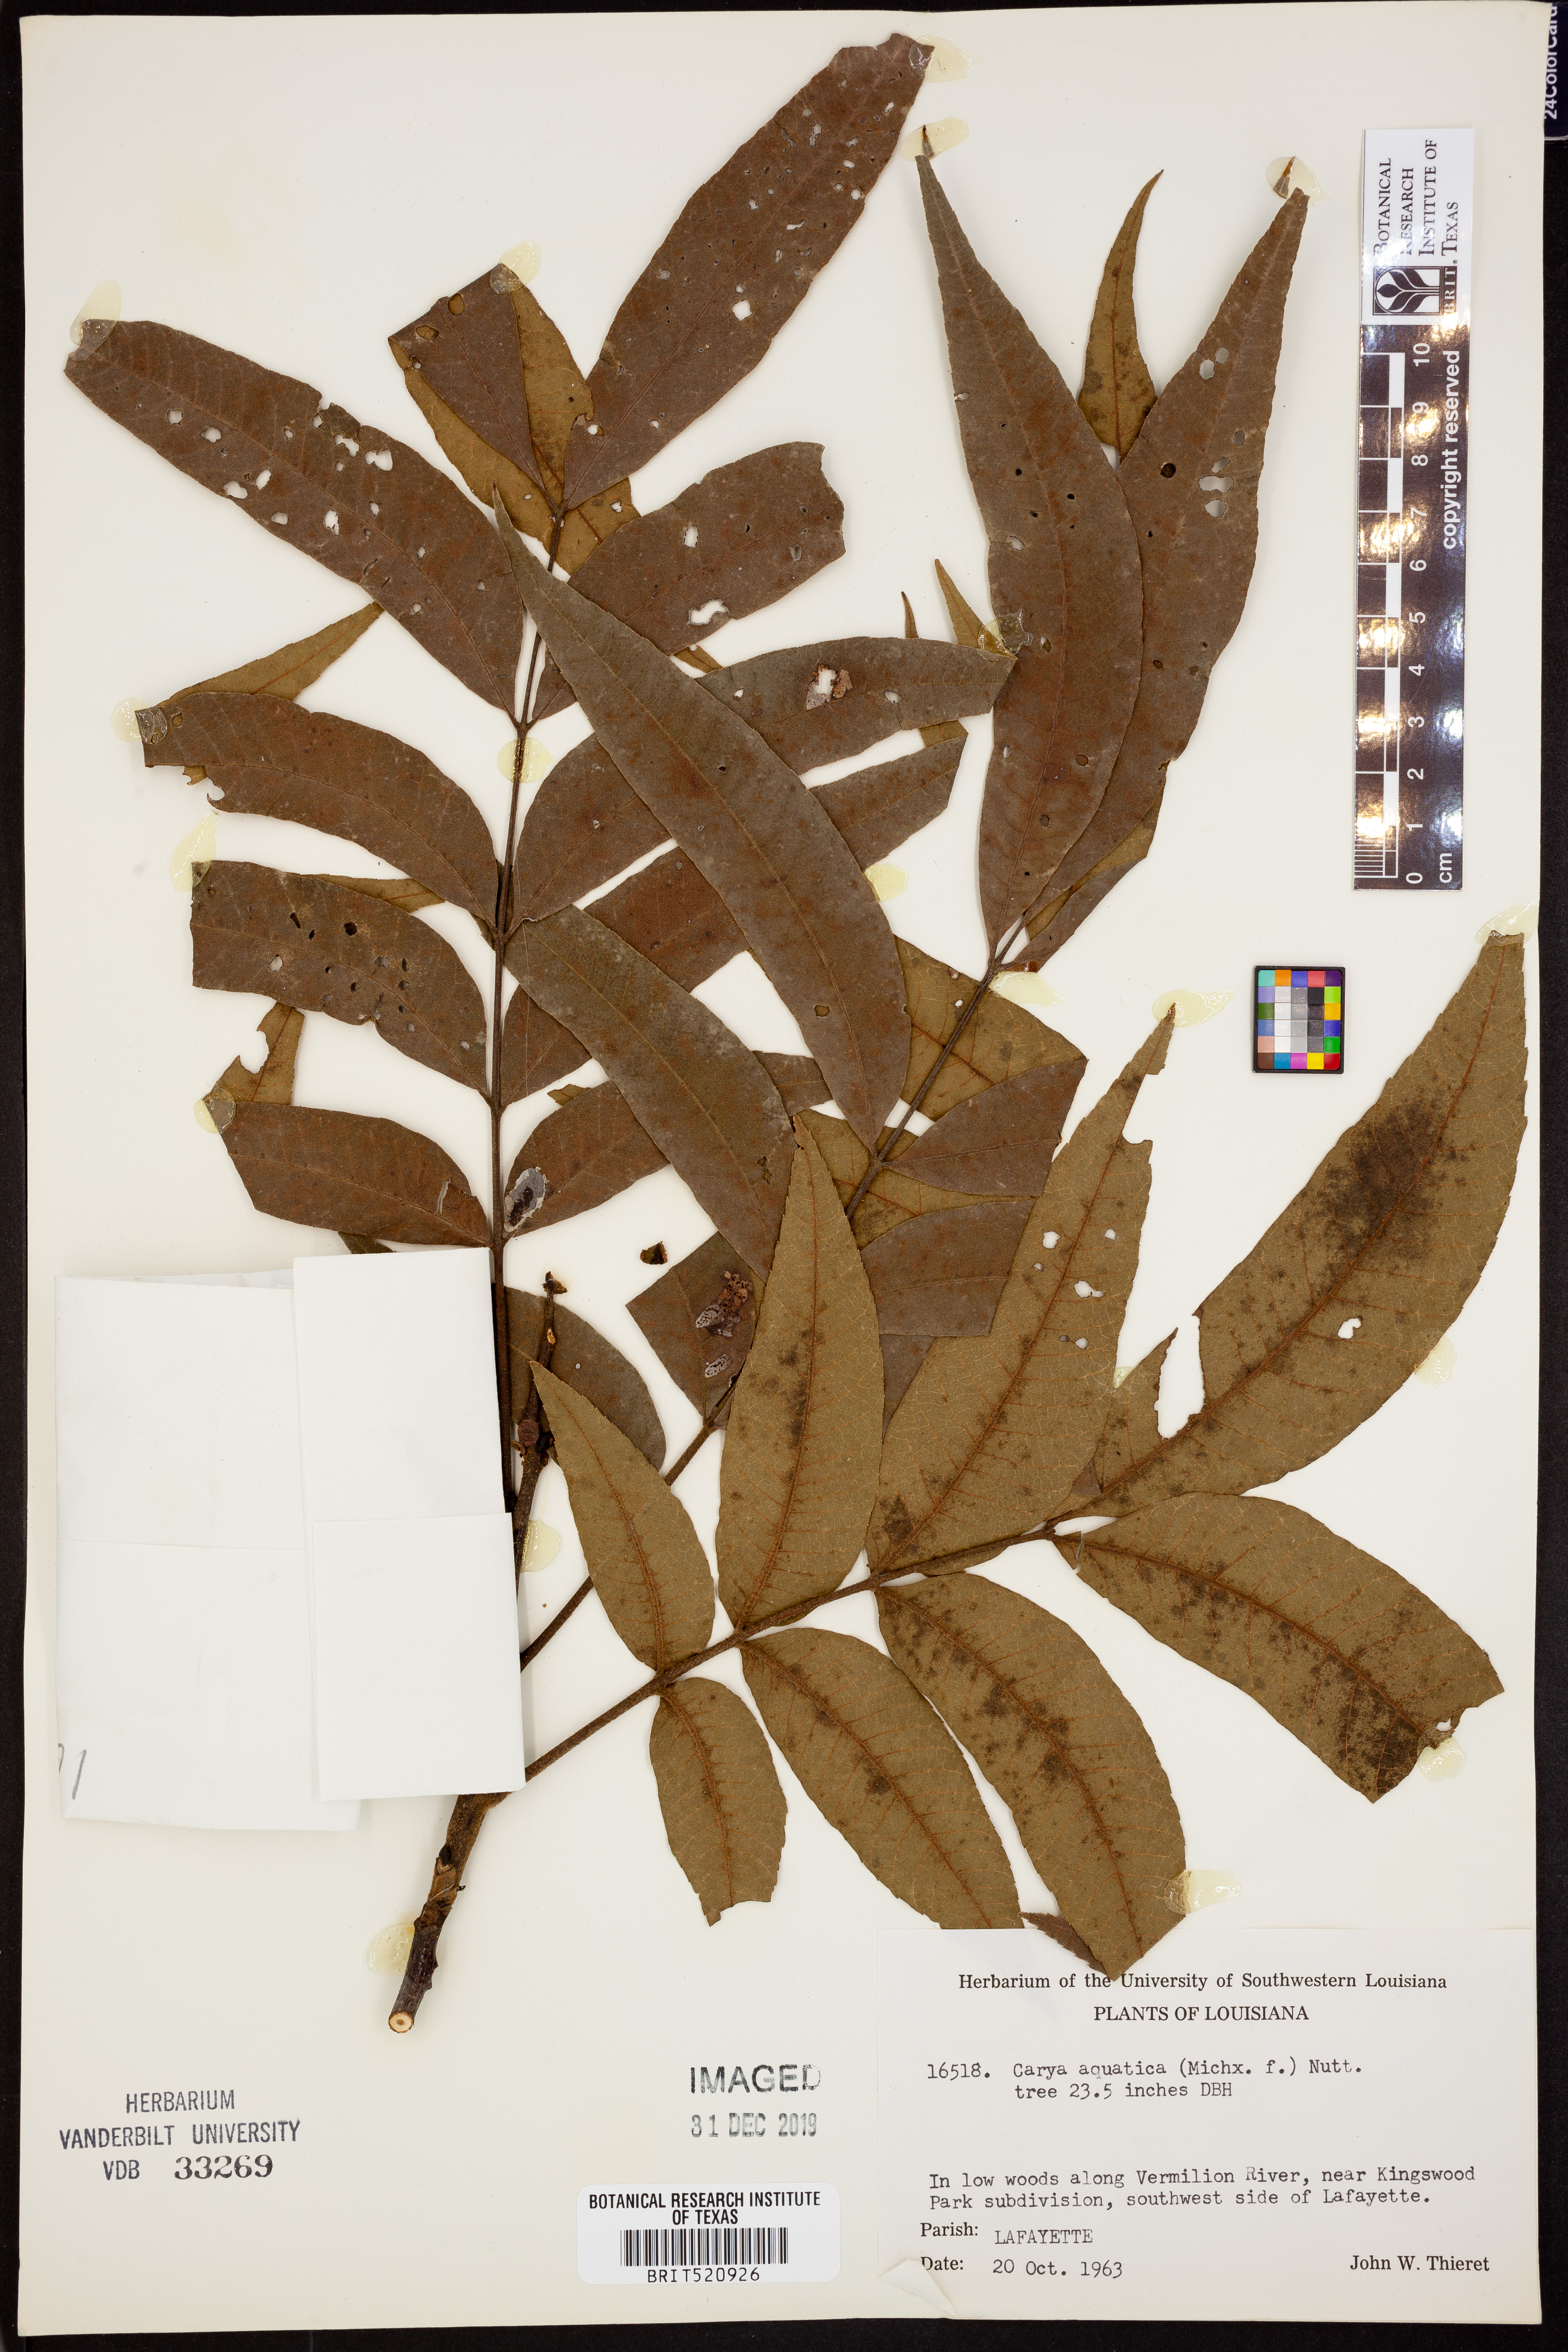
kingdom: Plantae
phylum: Tracheophyta
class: Magnoliopsida
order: Fagales
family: Juglandaceae
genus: Carya
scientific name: Carya aquatica
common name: Water hickory
